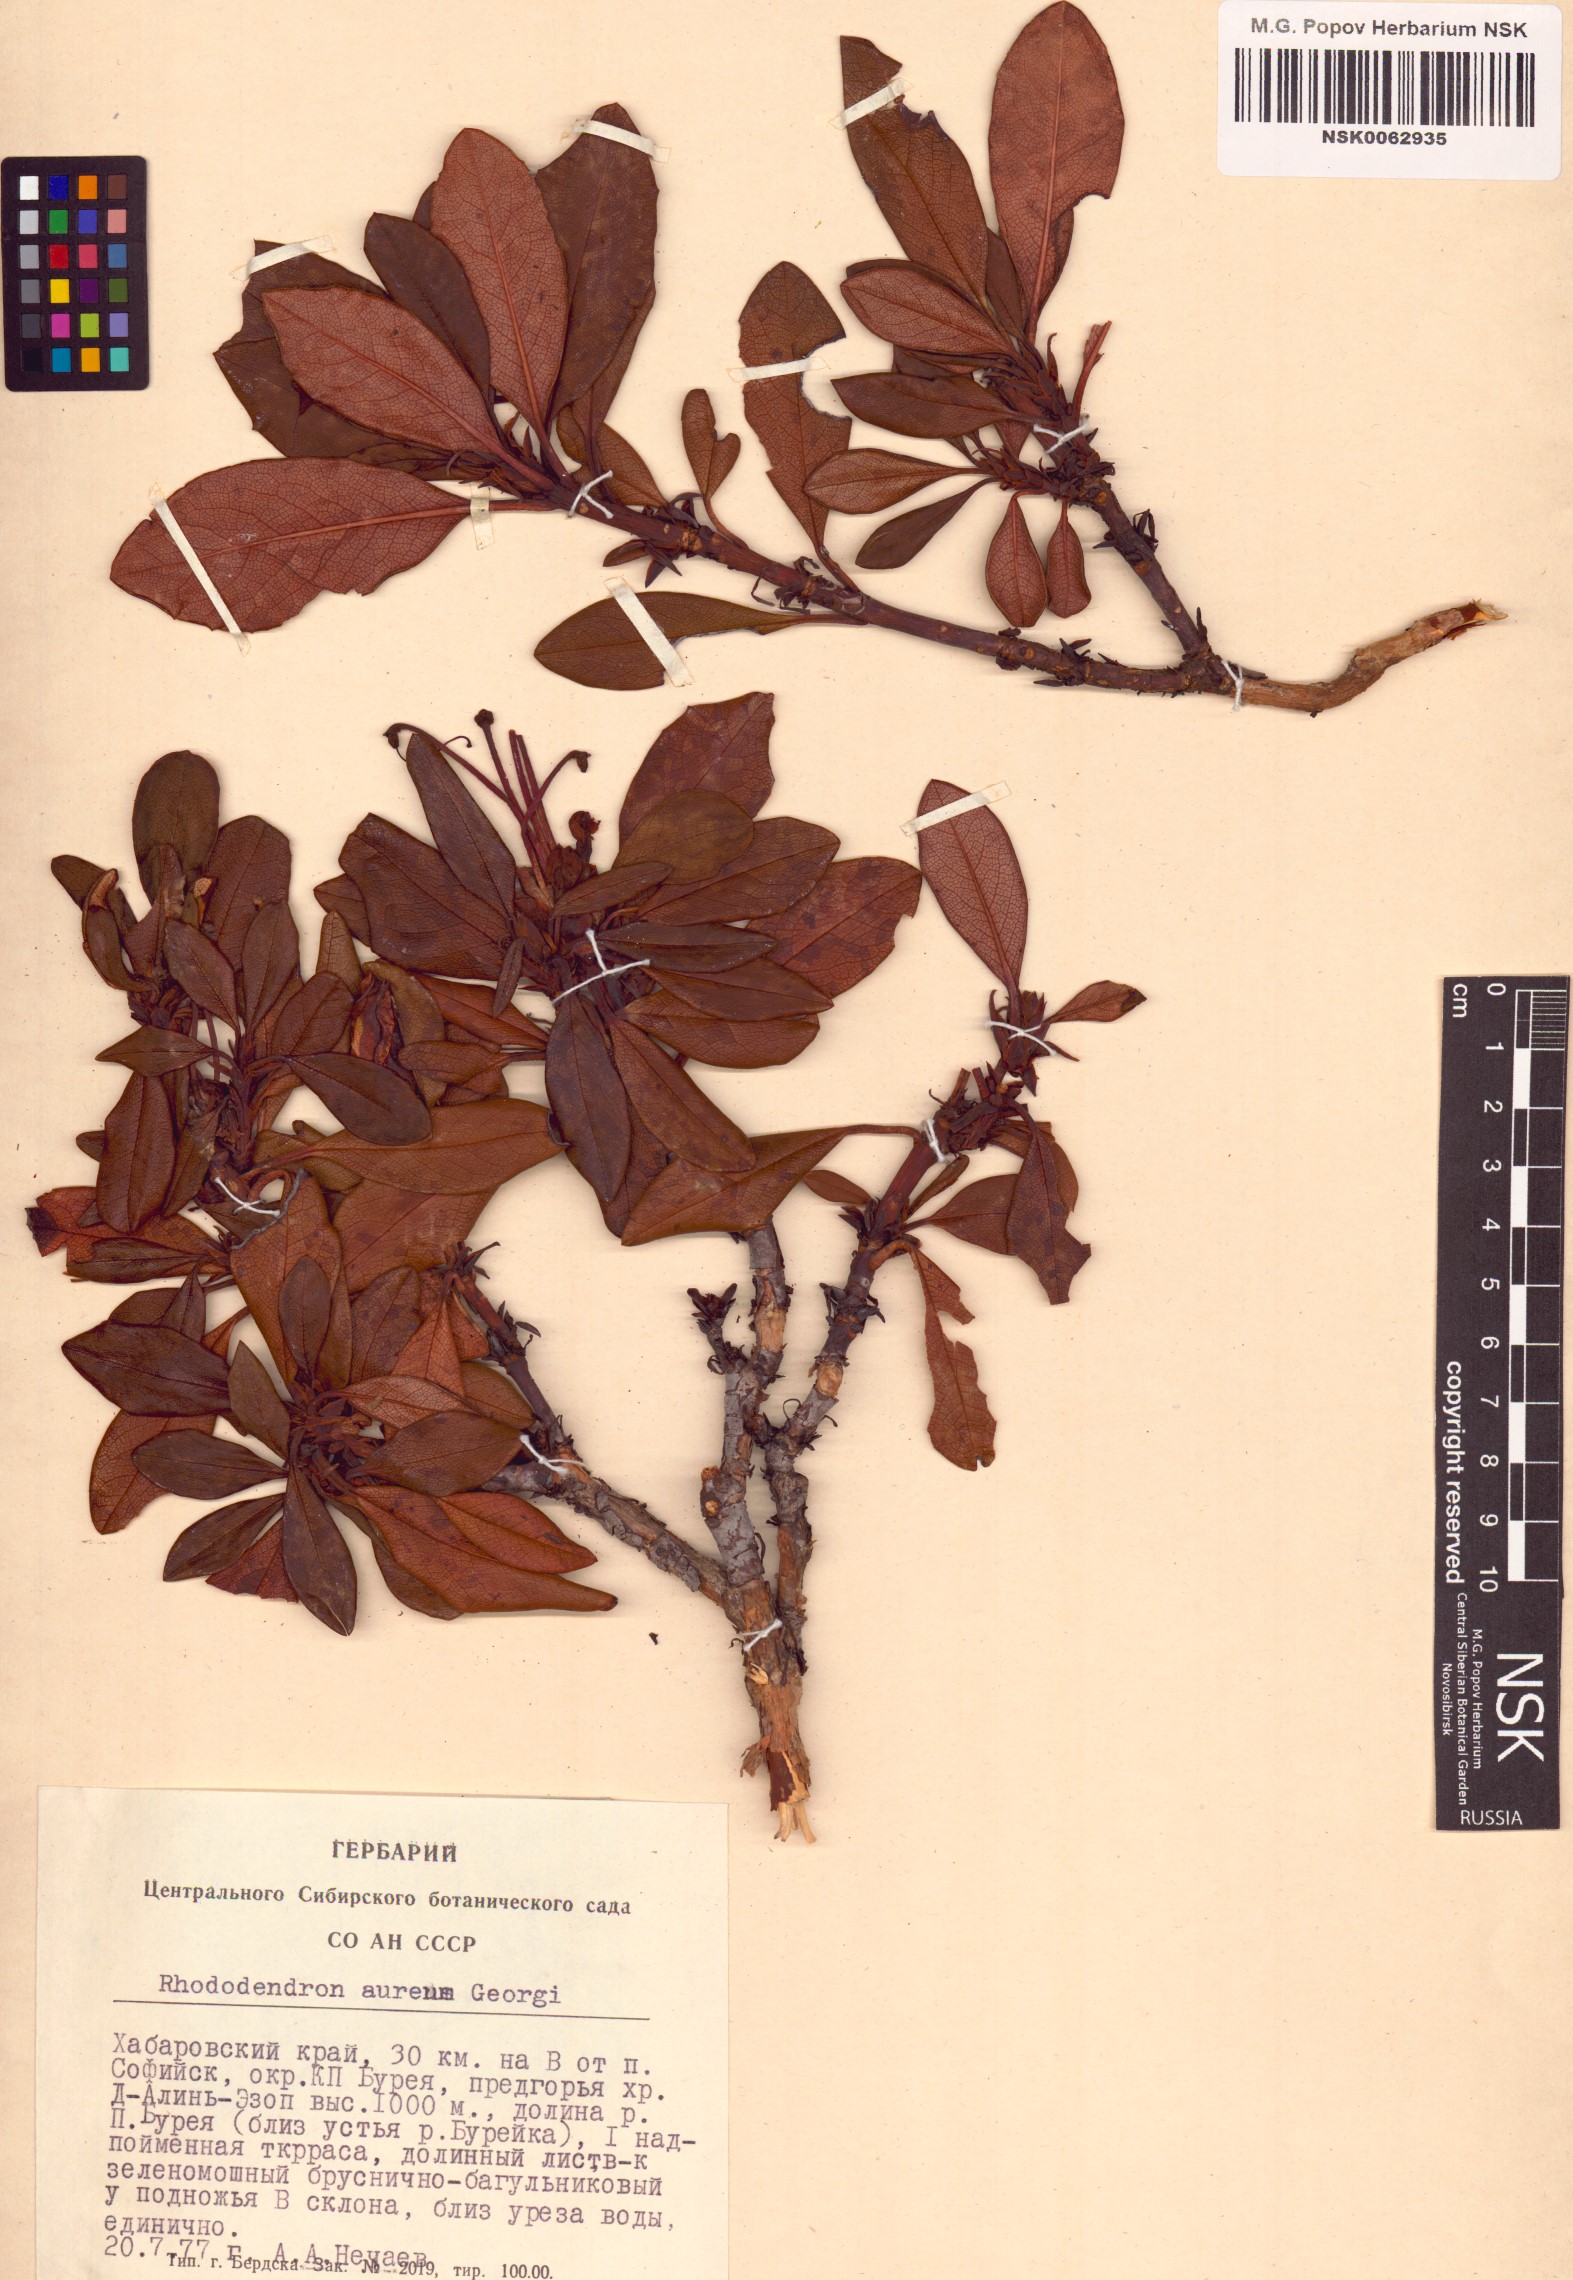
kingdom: Plantae
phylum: Tracheophyta
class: Magnoliopsida
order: Ericales
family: Ericaceae
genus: Rhododendron
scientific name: Rhododendron aureum
